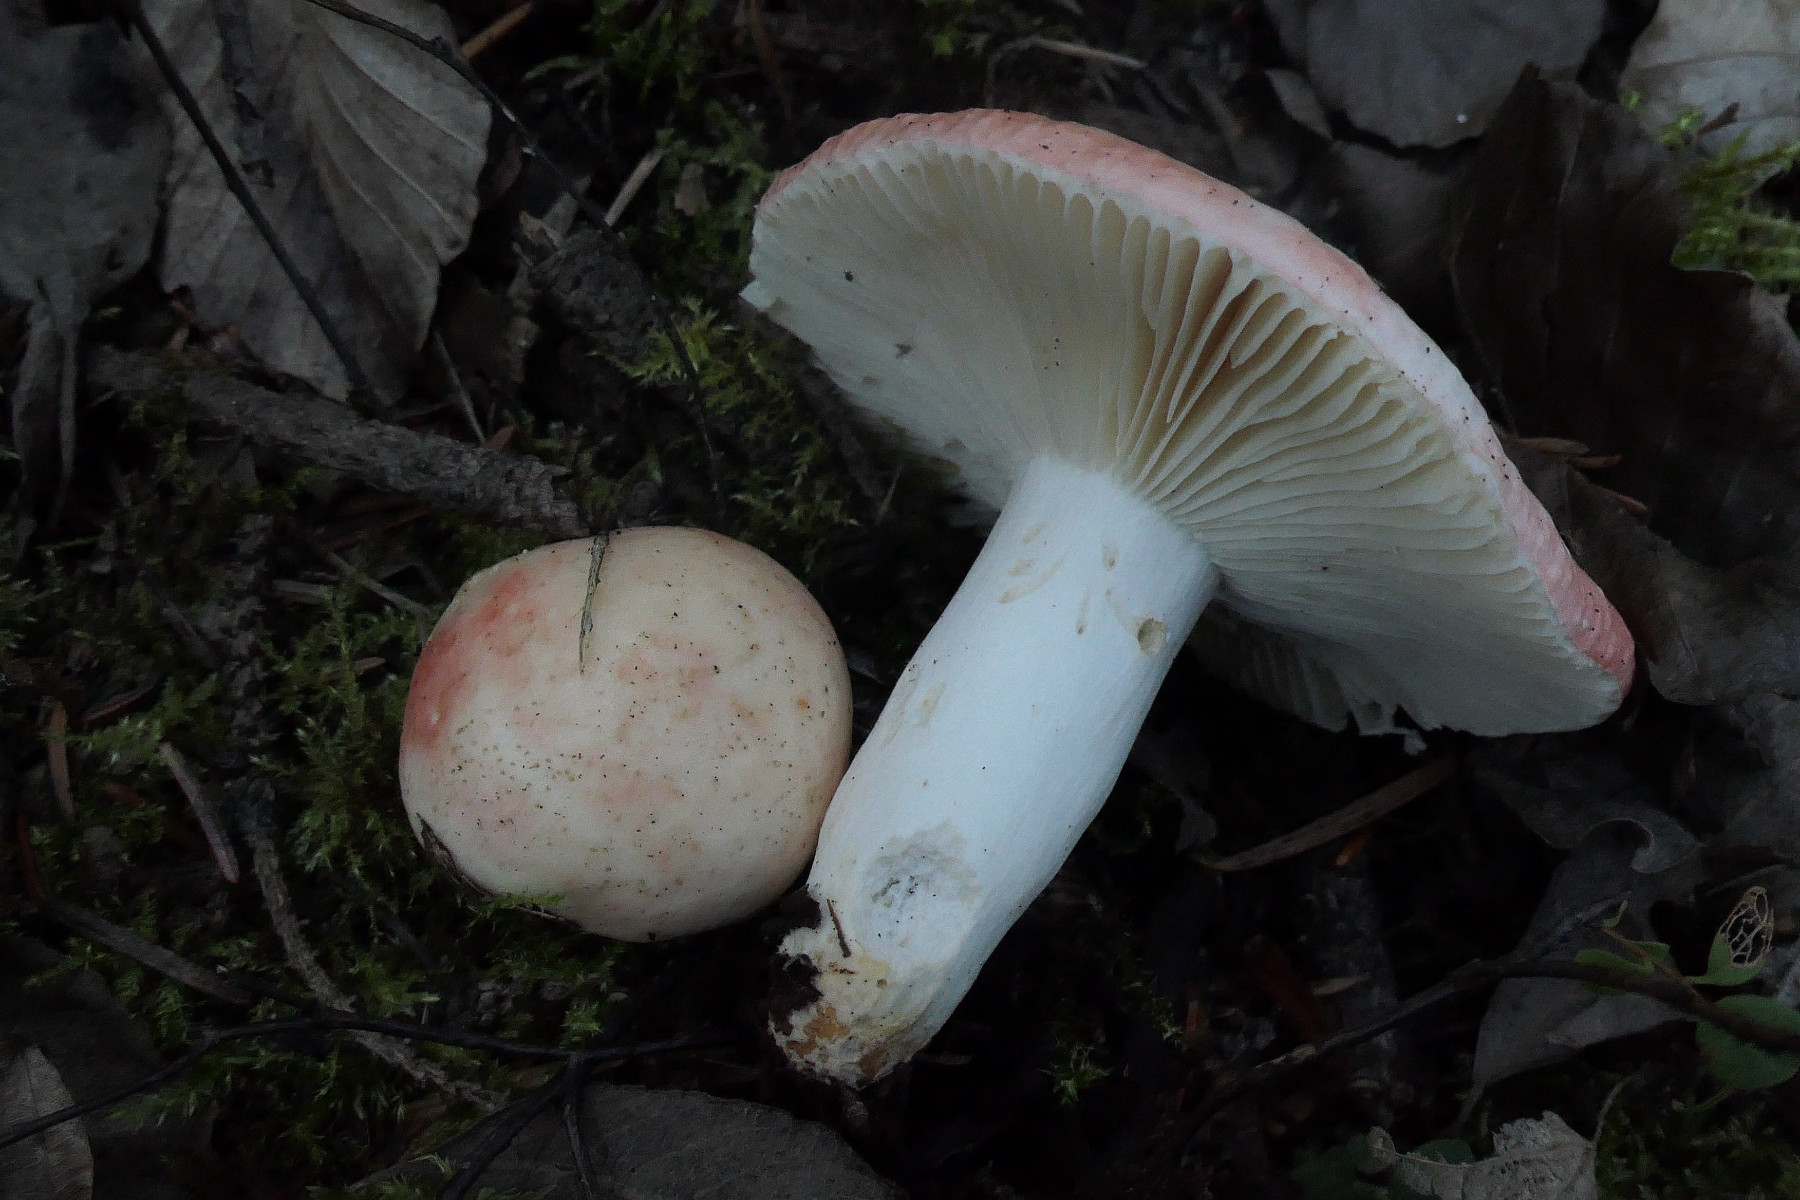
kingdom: Fungi
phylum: Basidiomycota
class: Agaricomycetes
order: Russulales
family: Russulaceae
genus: Russula
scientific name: Russula roseocremea
